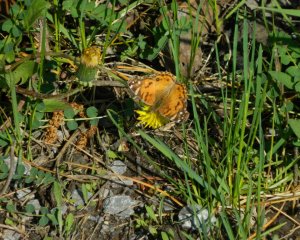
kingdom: Animalia
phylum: Arthropoda
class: Insecta
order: Lepidoptera
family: Nymphalidae
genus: Vanessa
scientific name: Vanessa virginiensis
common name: American Lady
